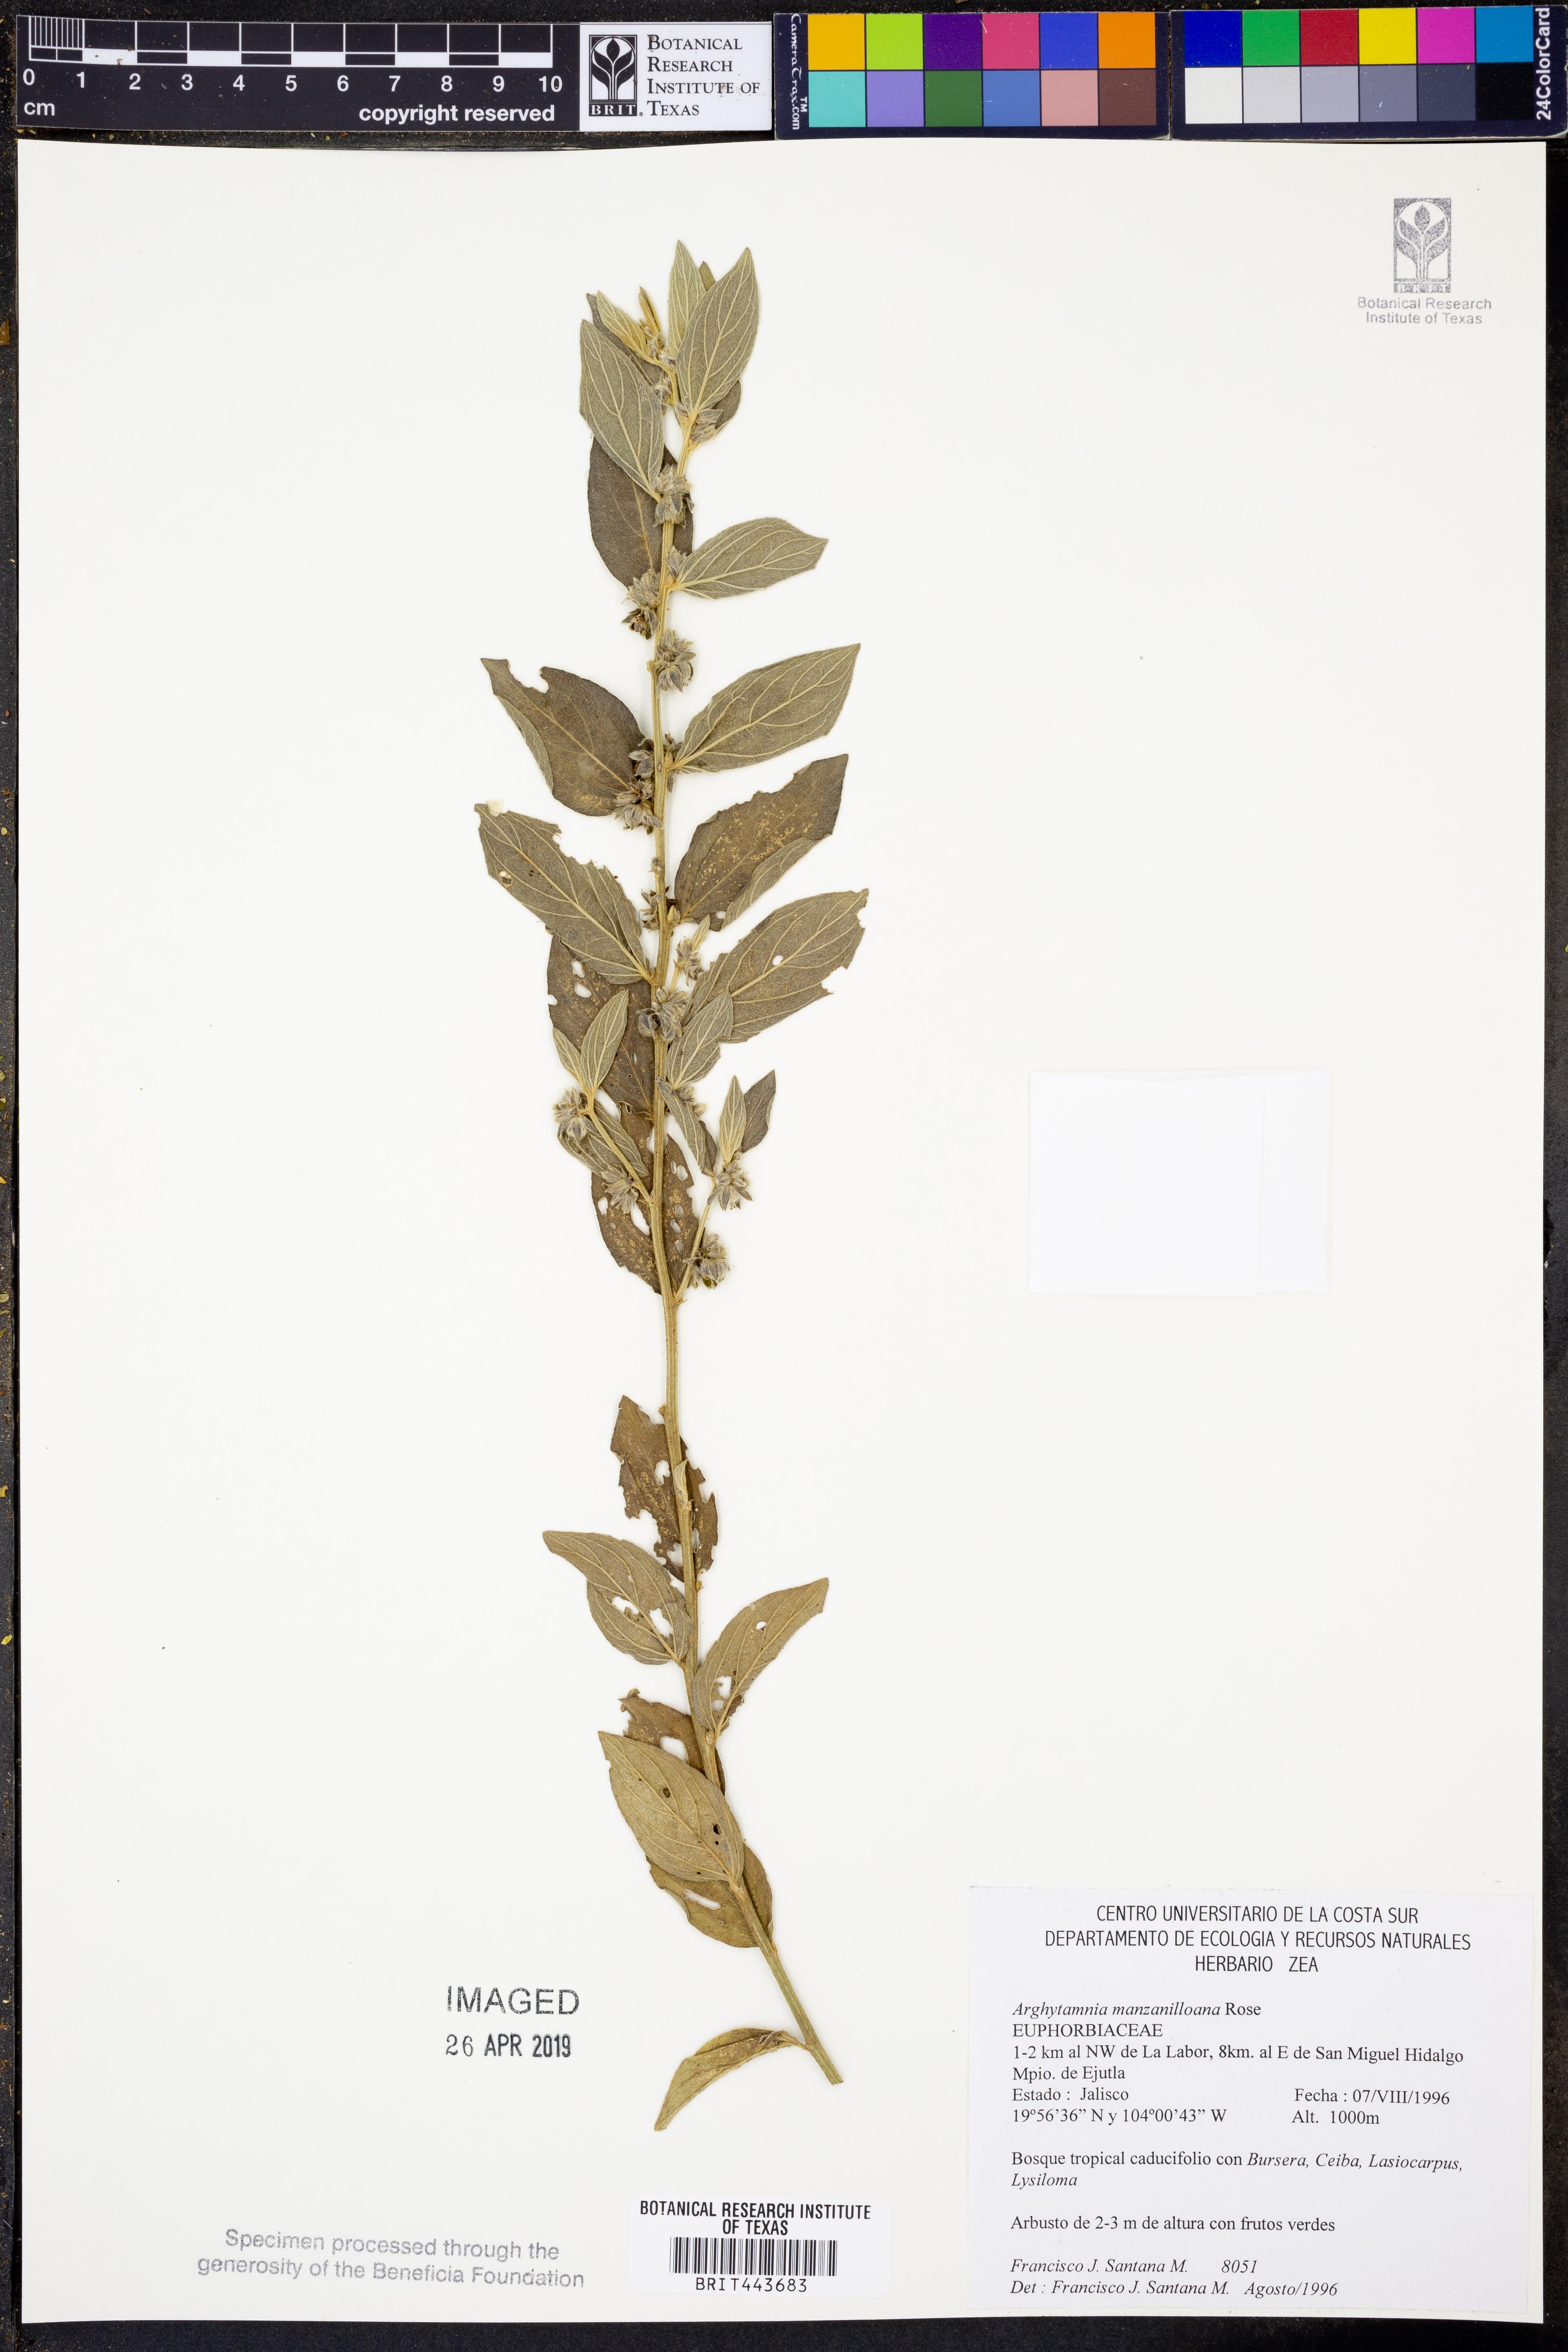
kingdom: Plantae
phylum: Tracheophyta
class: Magnoliopsida
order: Malpighiales
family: Euphorbiaceae
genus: Ditaxis
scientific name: Ditaxis manzanilloana
